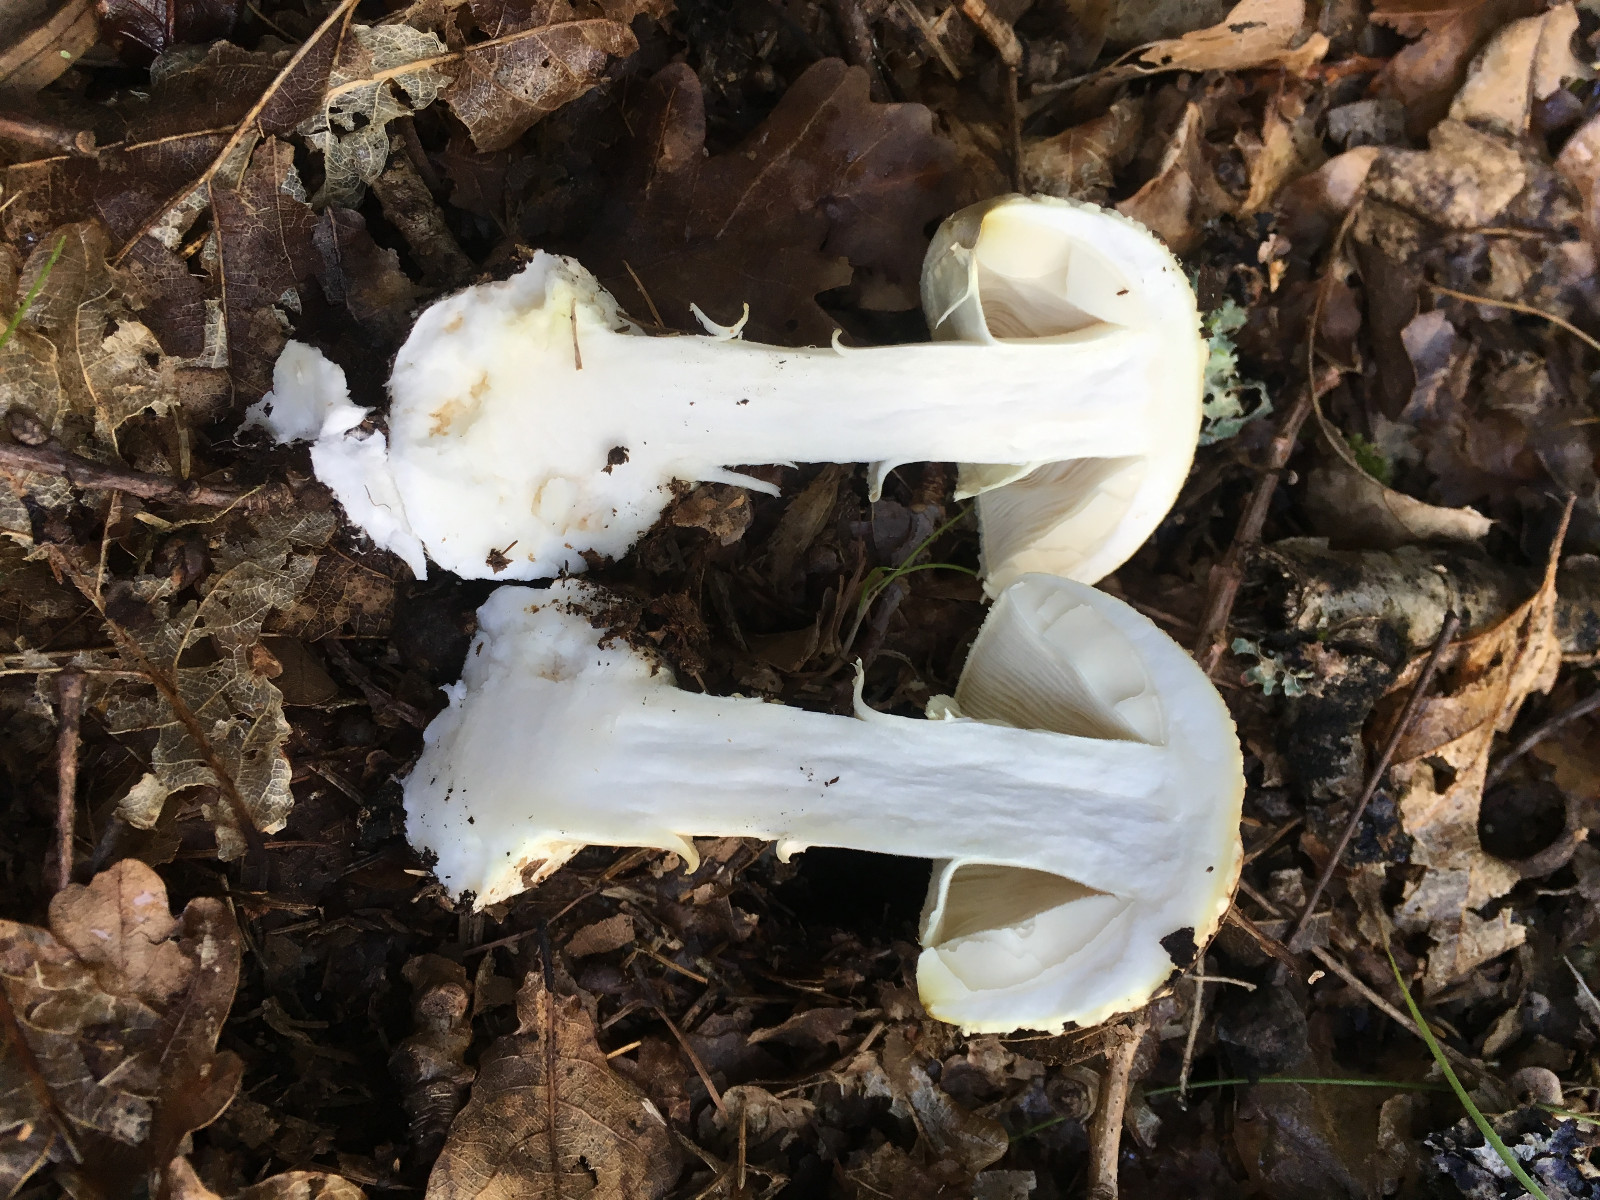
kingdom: Fungi
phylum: Basidiomycota
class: Agaricomycetes
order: Agaricales
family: Amanitaceae
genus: Amanita
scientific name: Amanita citrina
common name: kugleknoldet fluesvamp
